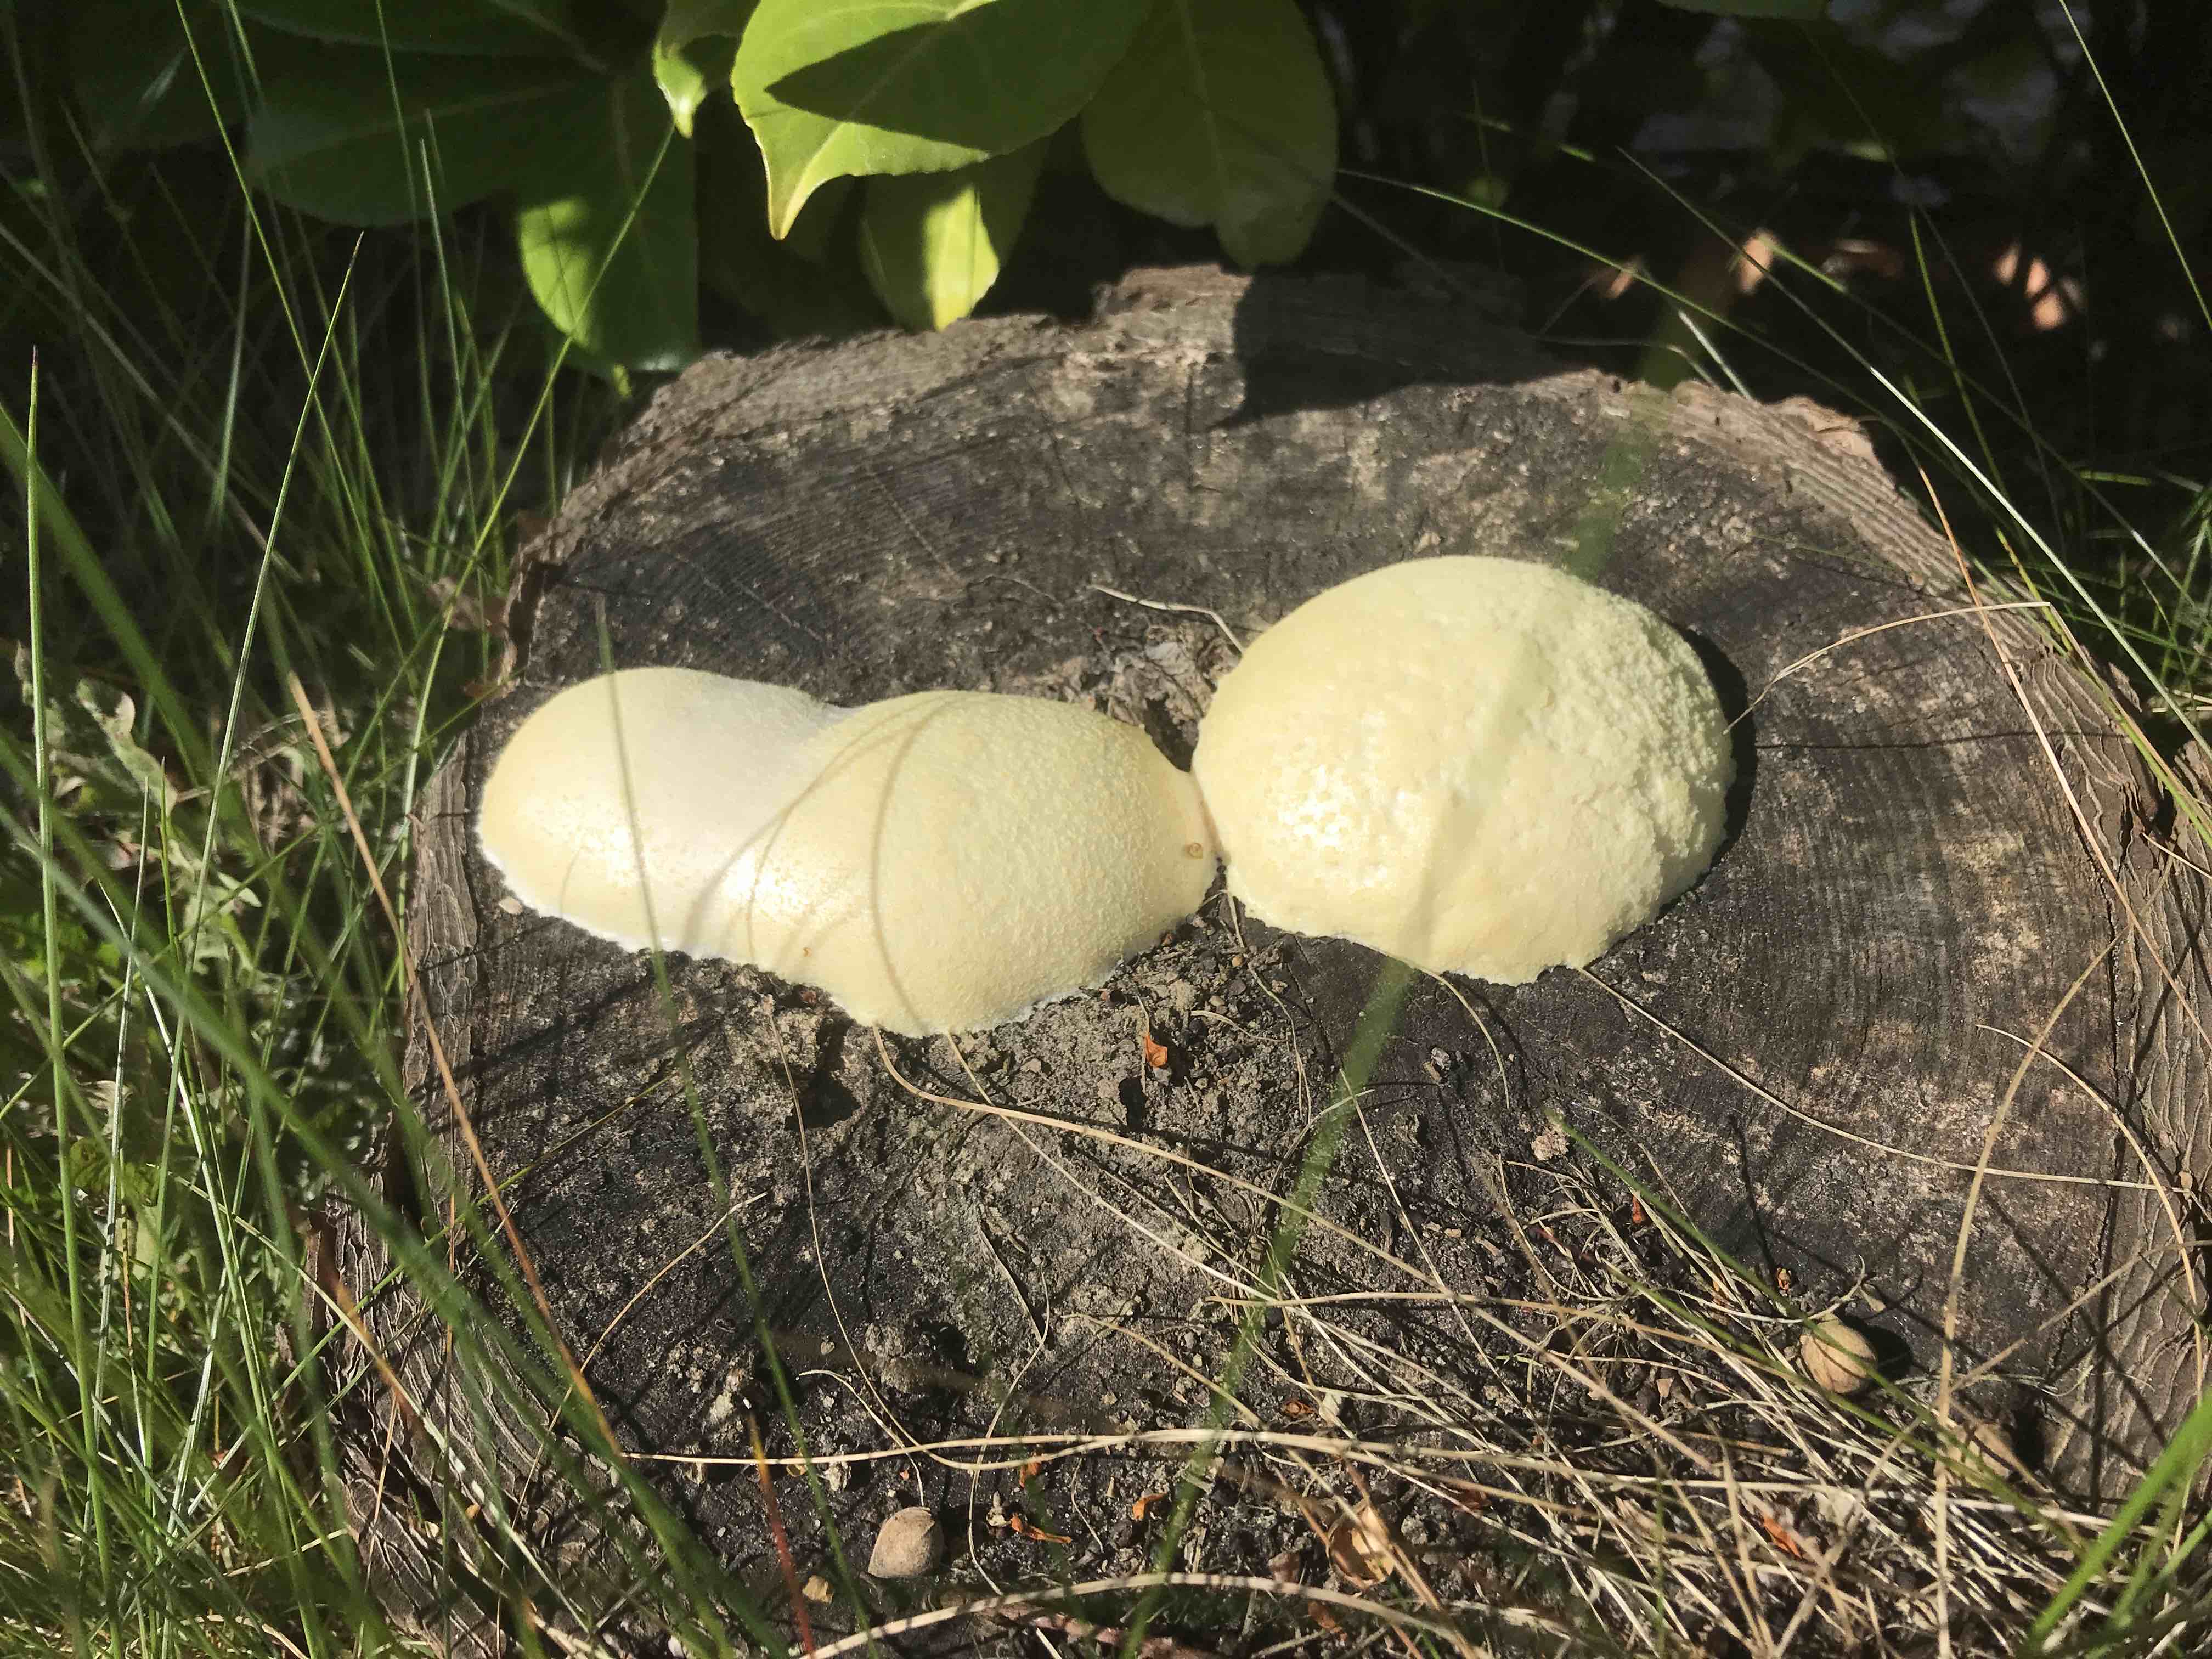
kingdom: Protozoa
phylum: Mycetozoa
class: Myxomycetes
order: Cribrariales
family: Tubiferaceae
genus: Reticularia
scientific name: Reticularia lycoperdon
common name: skinnende støvpude
